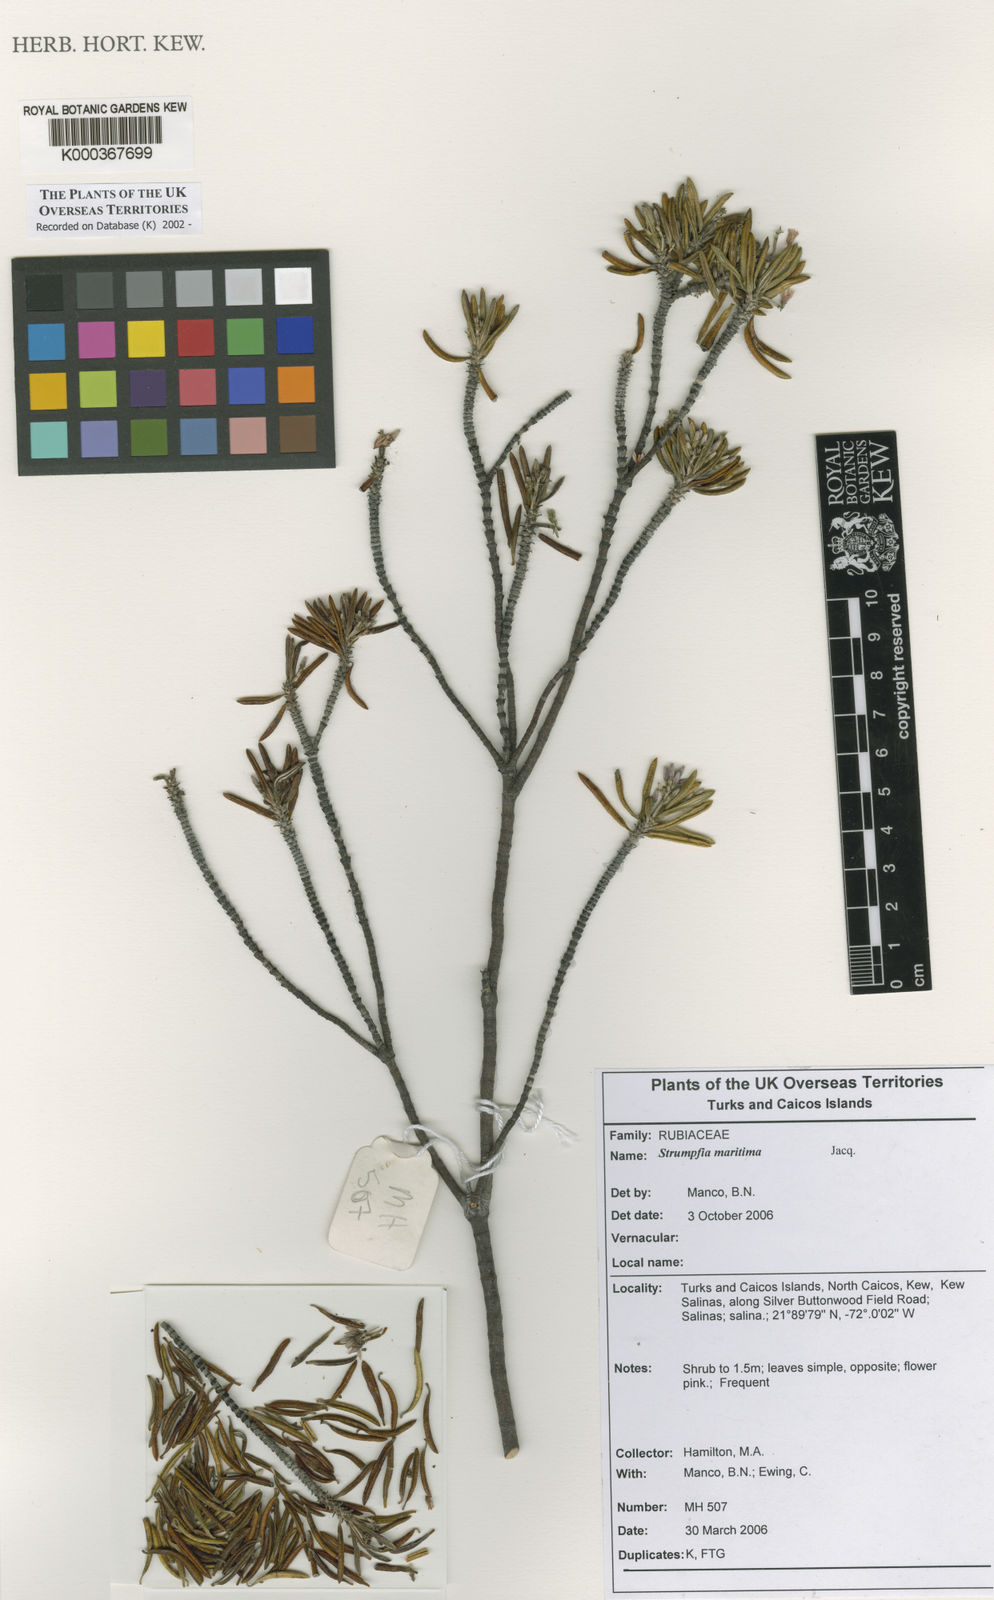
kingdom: Plantae
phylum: Tracheophyta
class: Magnoliopsida
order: Gentianales
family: Rubiaceae
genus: Strumpfia
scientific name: Strumpfia maritima
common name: Pride-of-big pine
